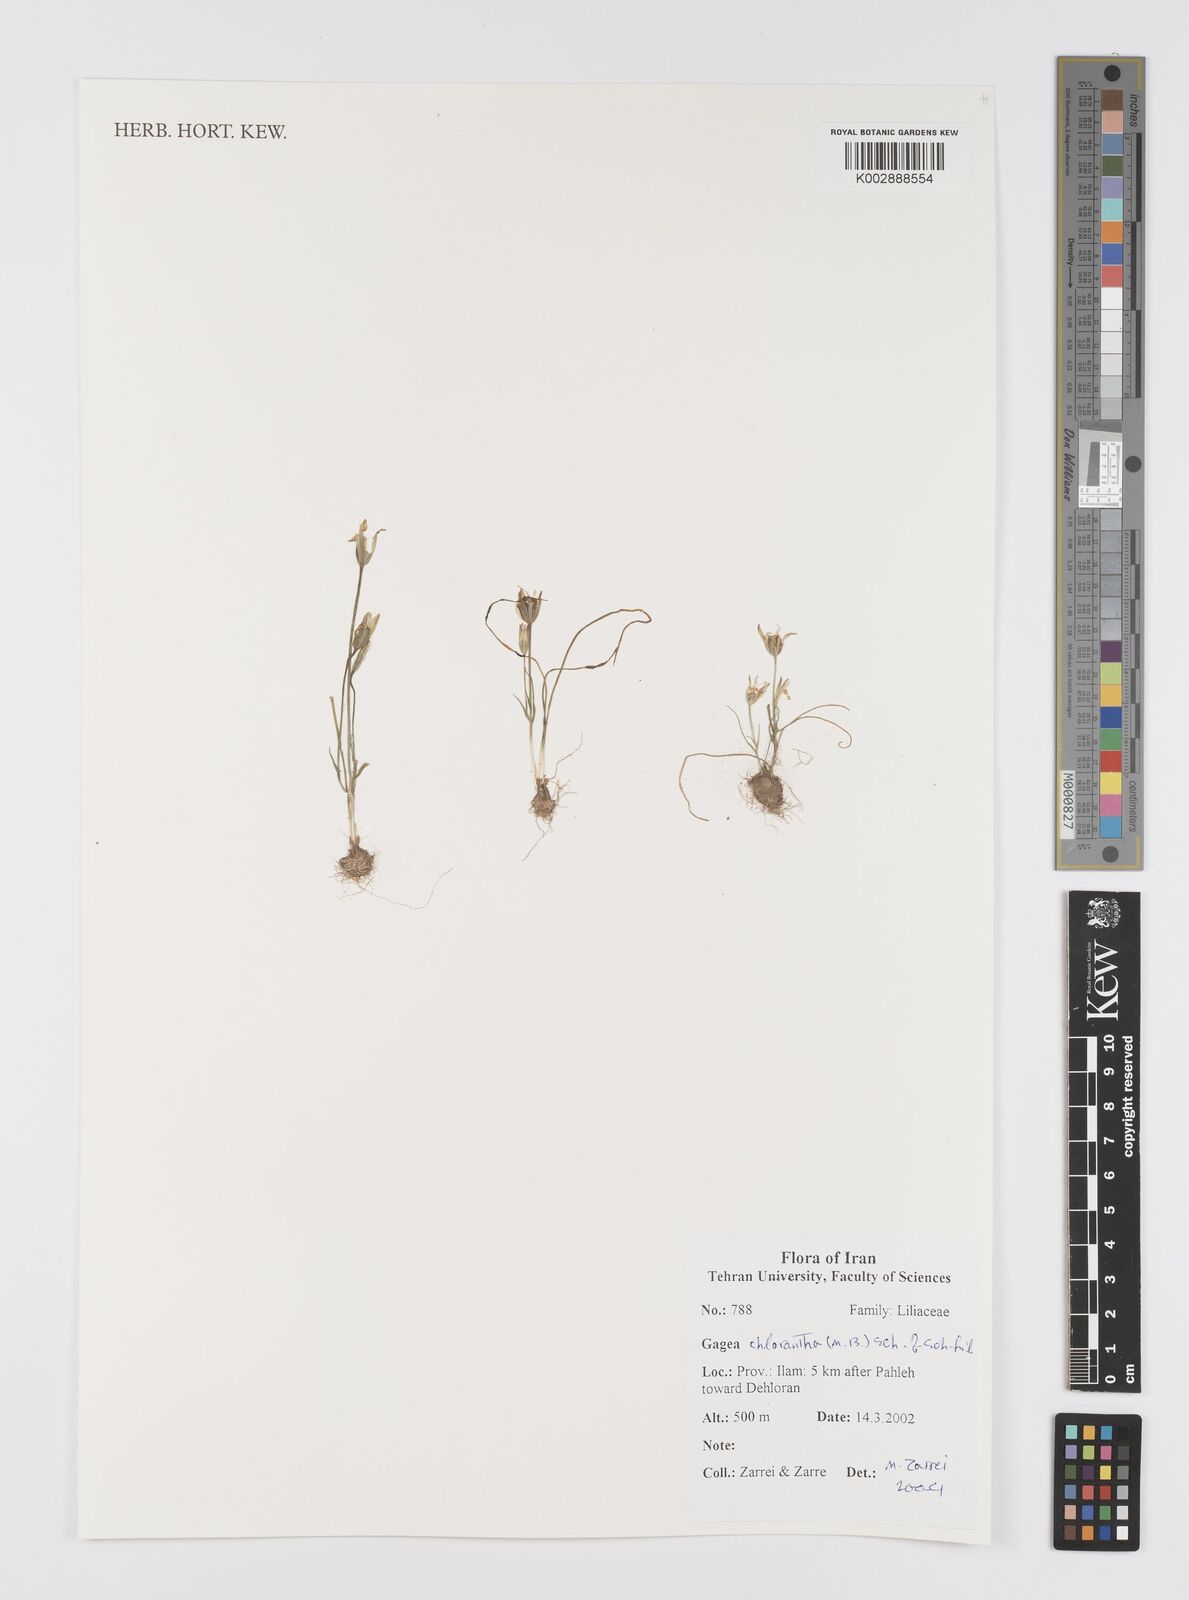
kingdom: Plantae
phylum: Tracheophyta
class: Liliopsida
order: Liliales
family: Liliaceae
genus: Gagea
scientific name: Gagea chlorantha
